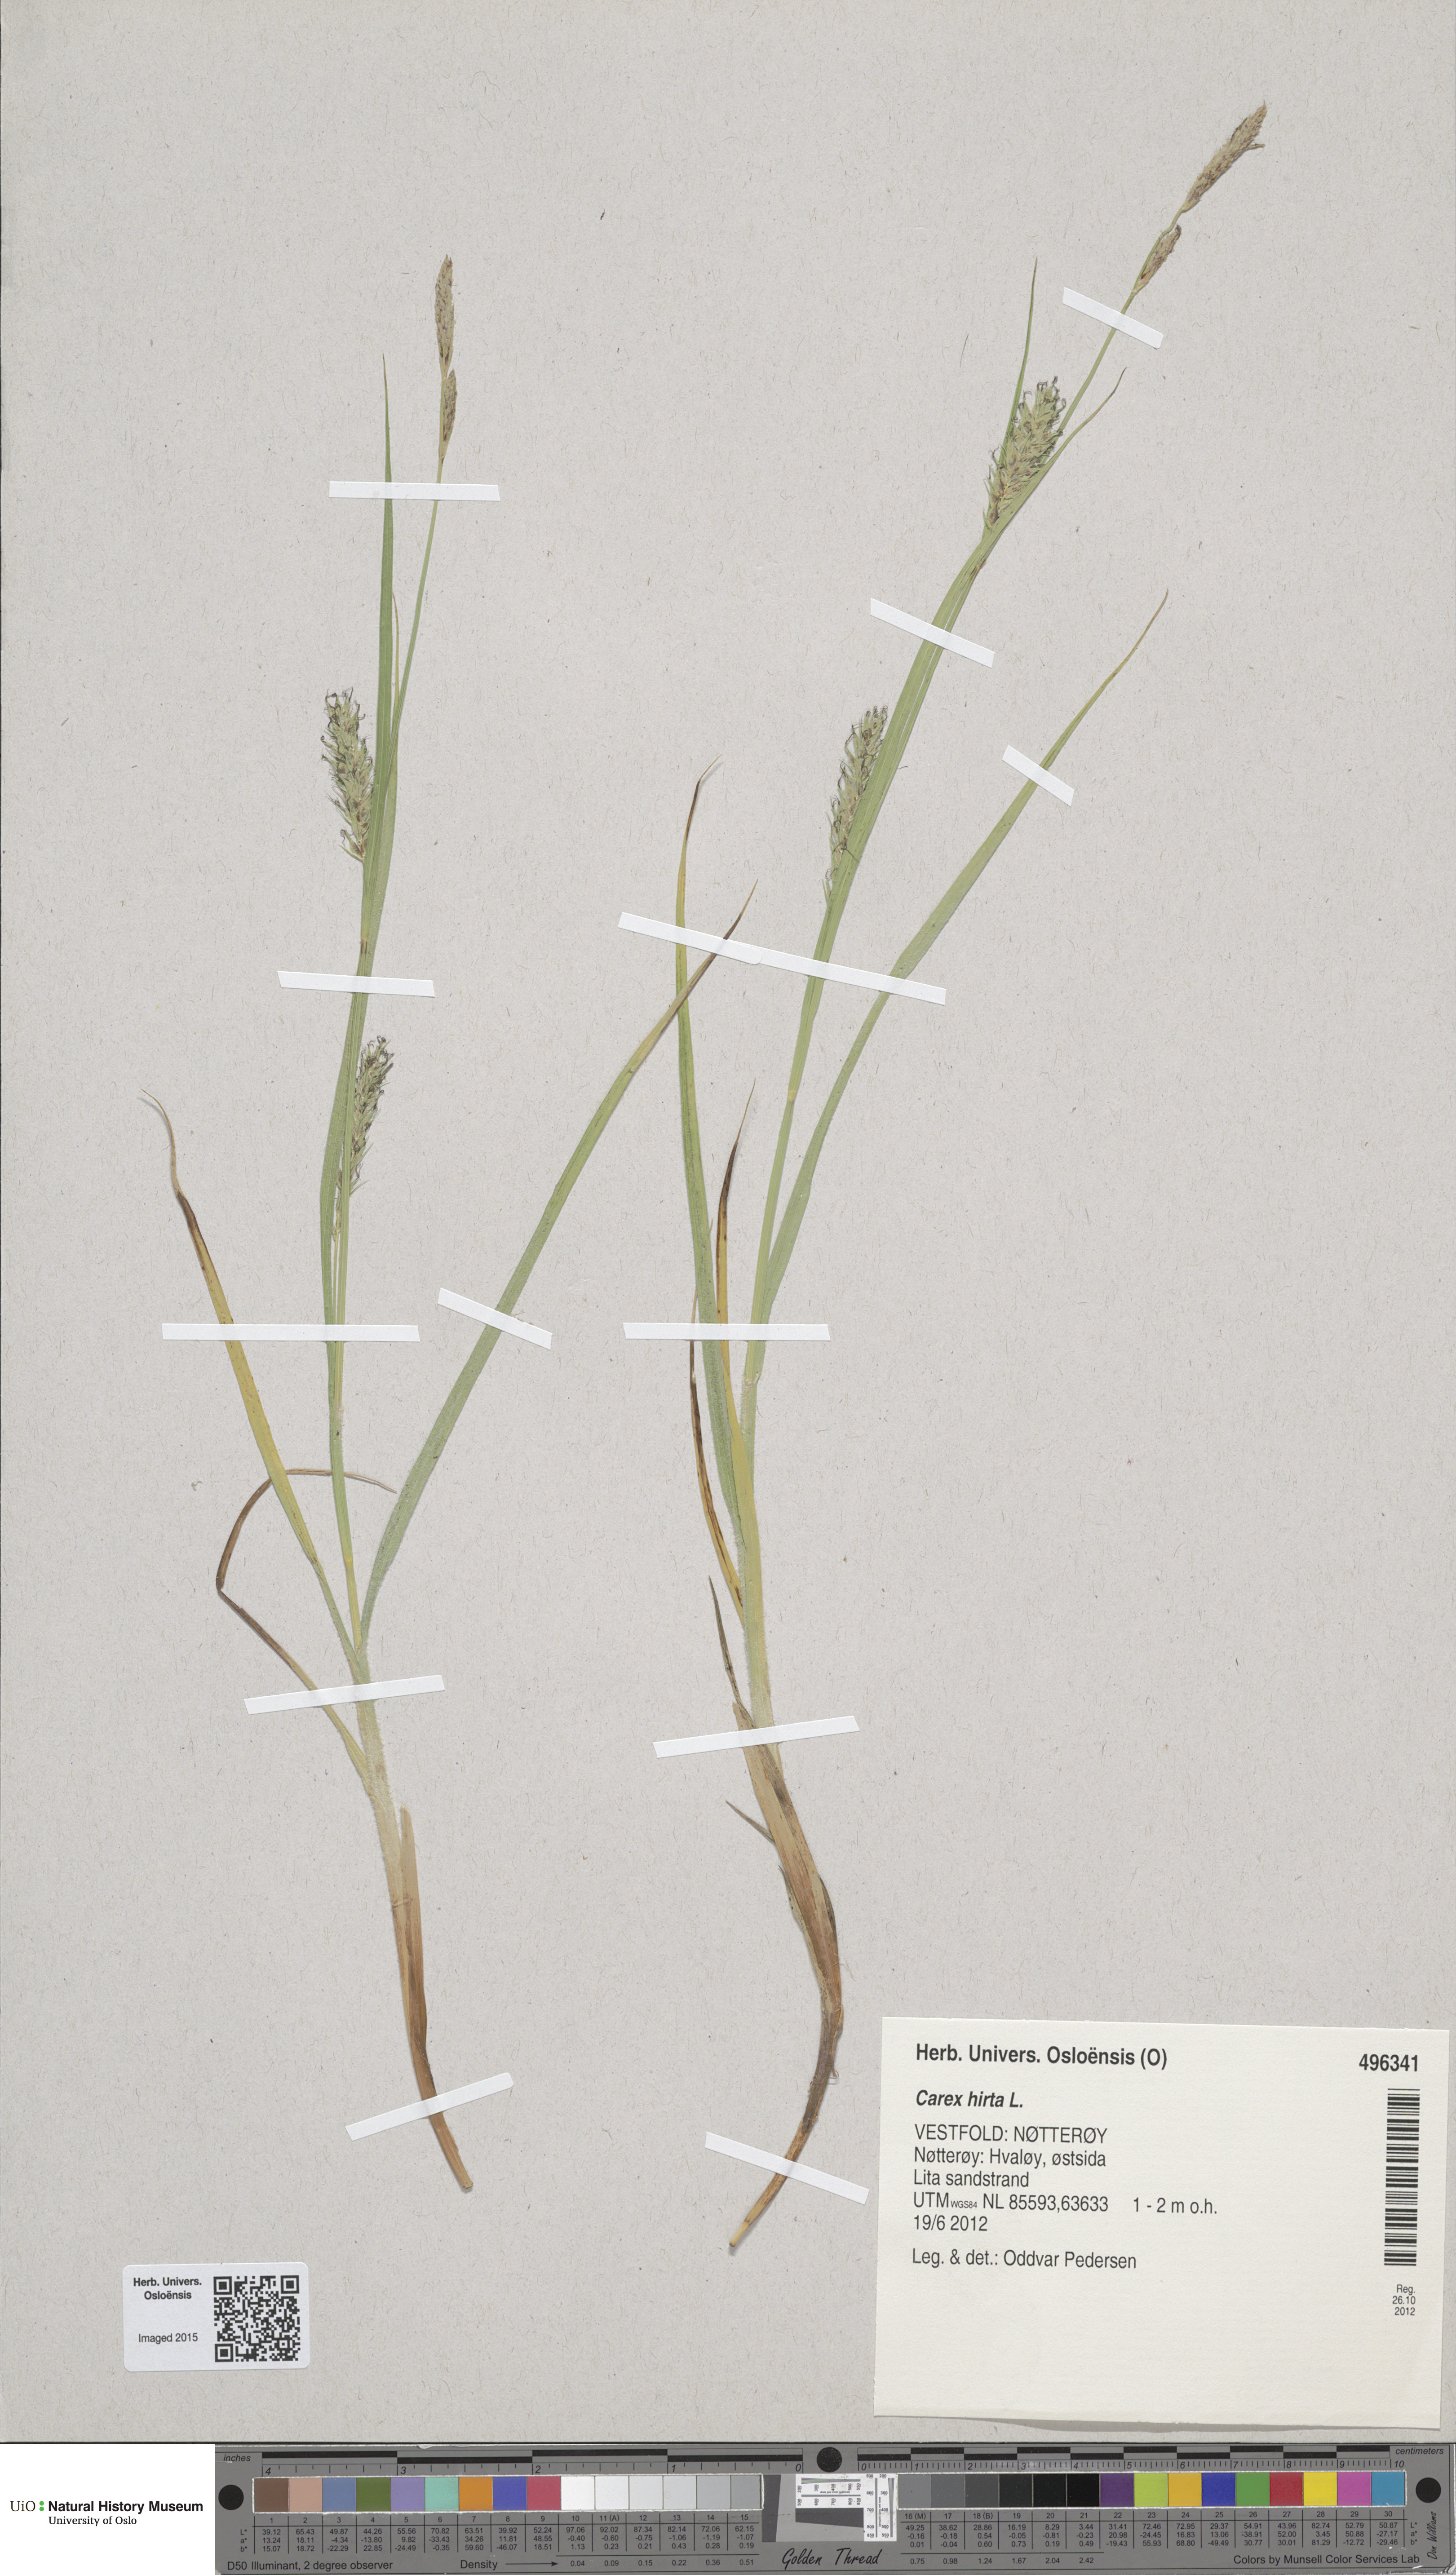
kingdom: Plantae
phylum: Tracheophyta
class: Liliopsida
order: Poales
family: Cyperaceae
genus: Carex
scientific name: Carex hirta
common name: Hairy sedge
